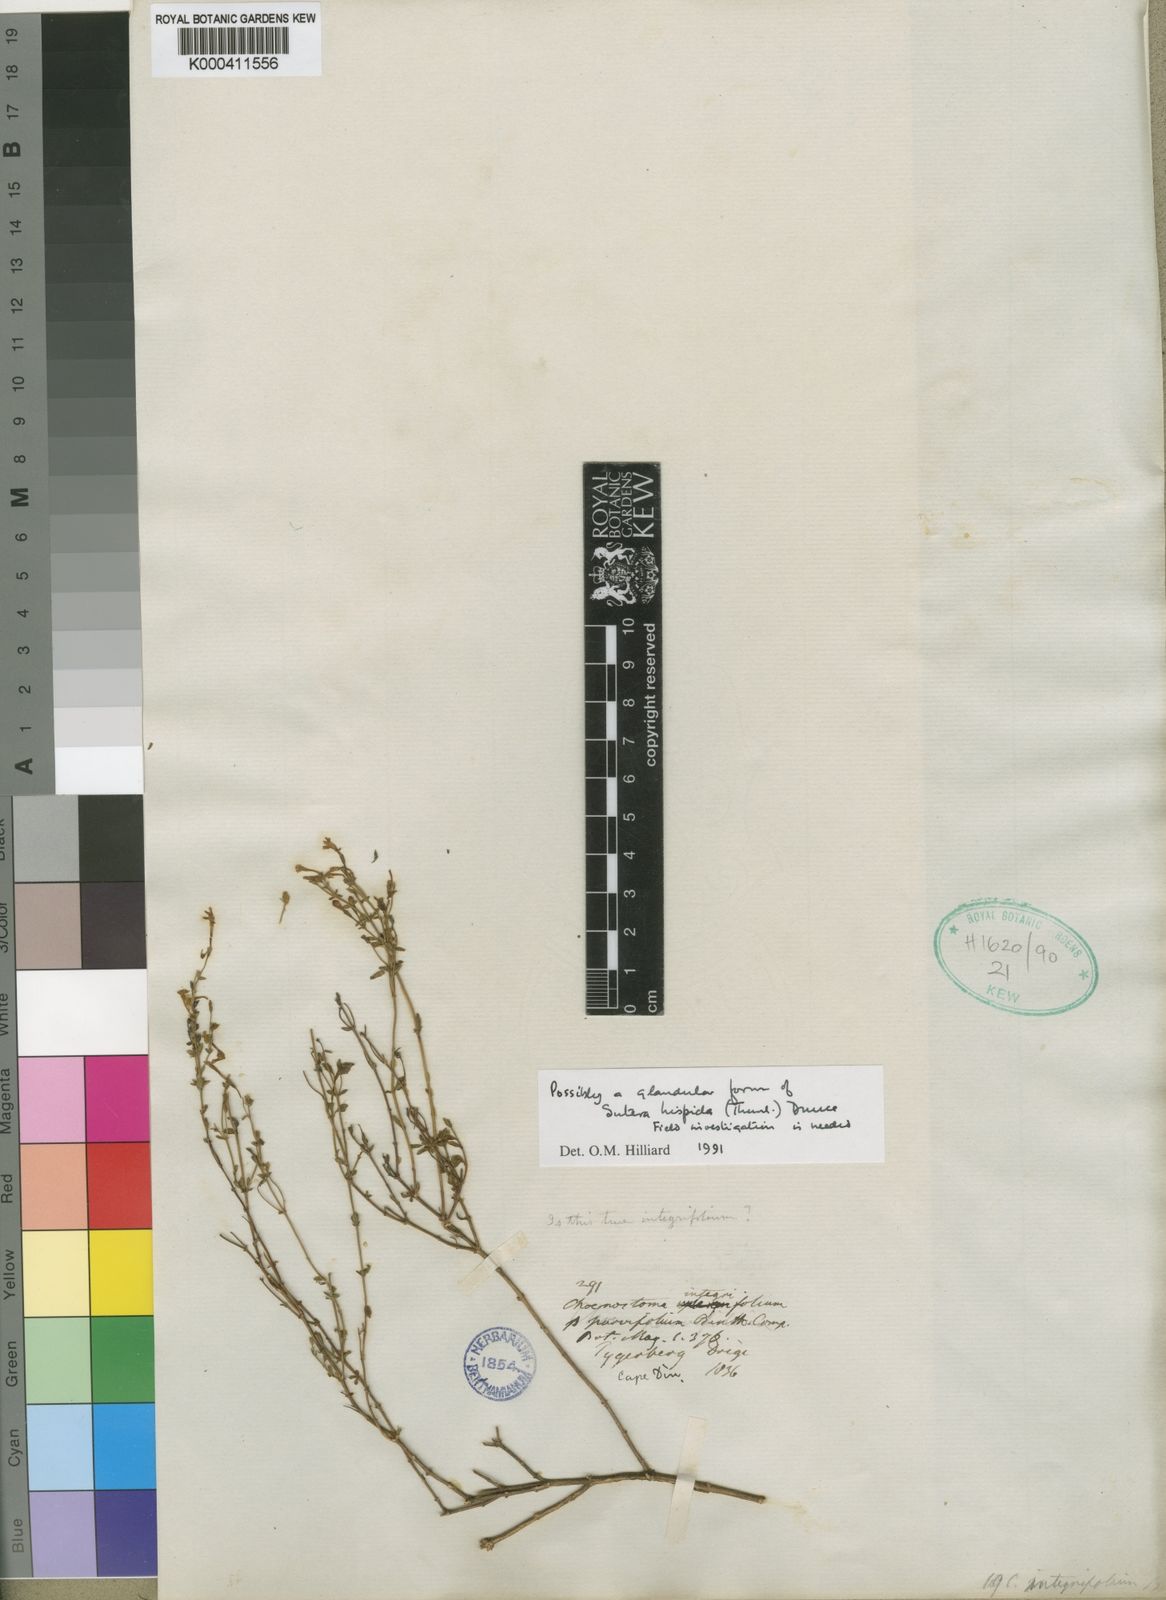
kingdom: Plantae
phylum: Tracheophyta
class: Magnoliopsida
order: Lamiales
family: Scrophulariaceae
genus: Chaenostoma
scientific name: Chaenostoma hispidum
